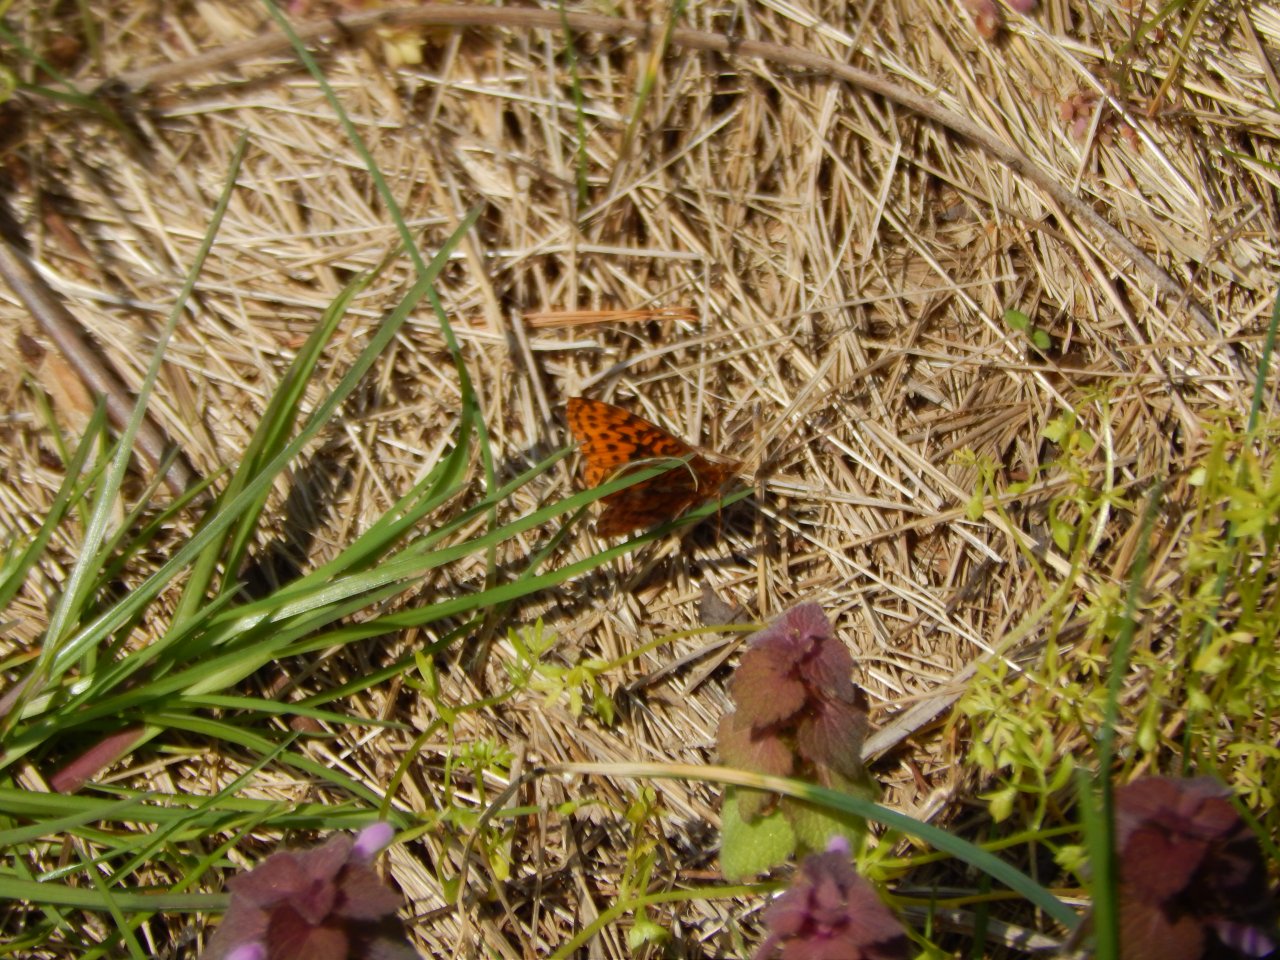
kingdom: Animalia
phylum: Arthropoda
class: Insecta
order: Lepidoptera
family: Nymphalidae
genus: Clossiana
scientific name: Clossiana toddi
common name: Meadow Fritillary
